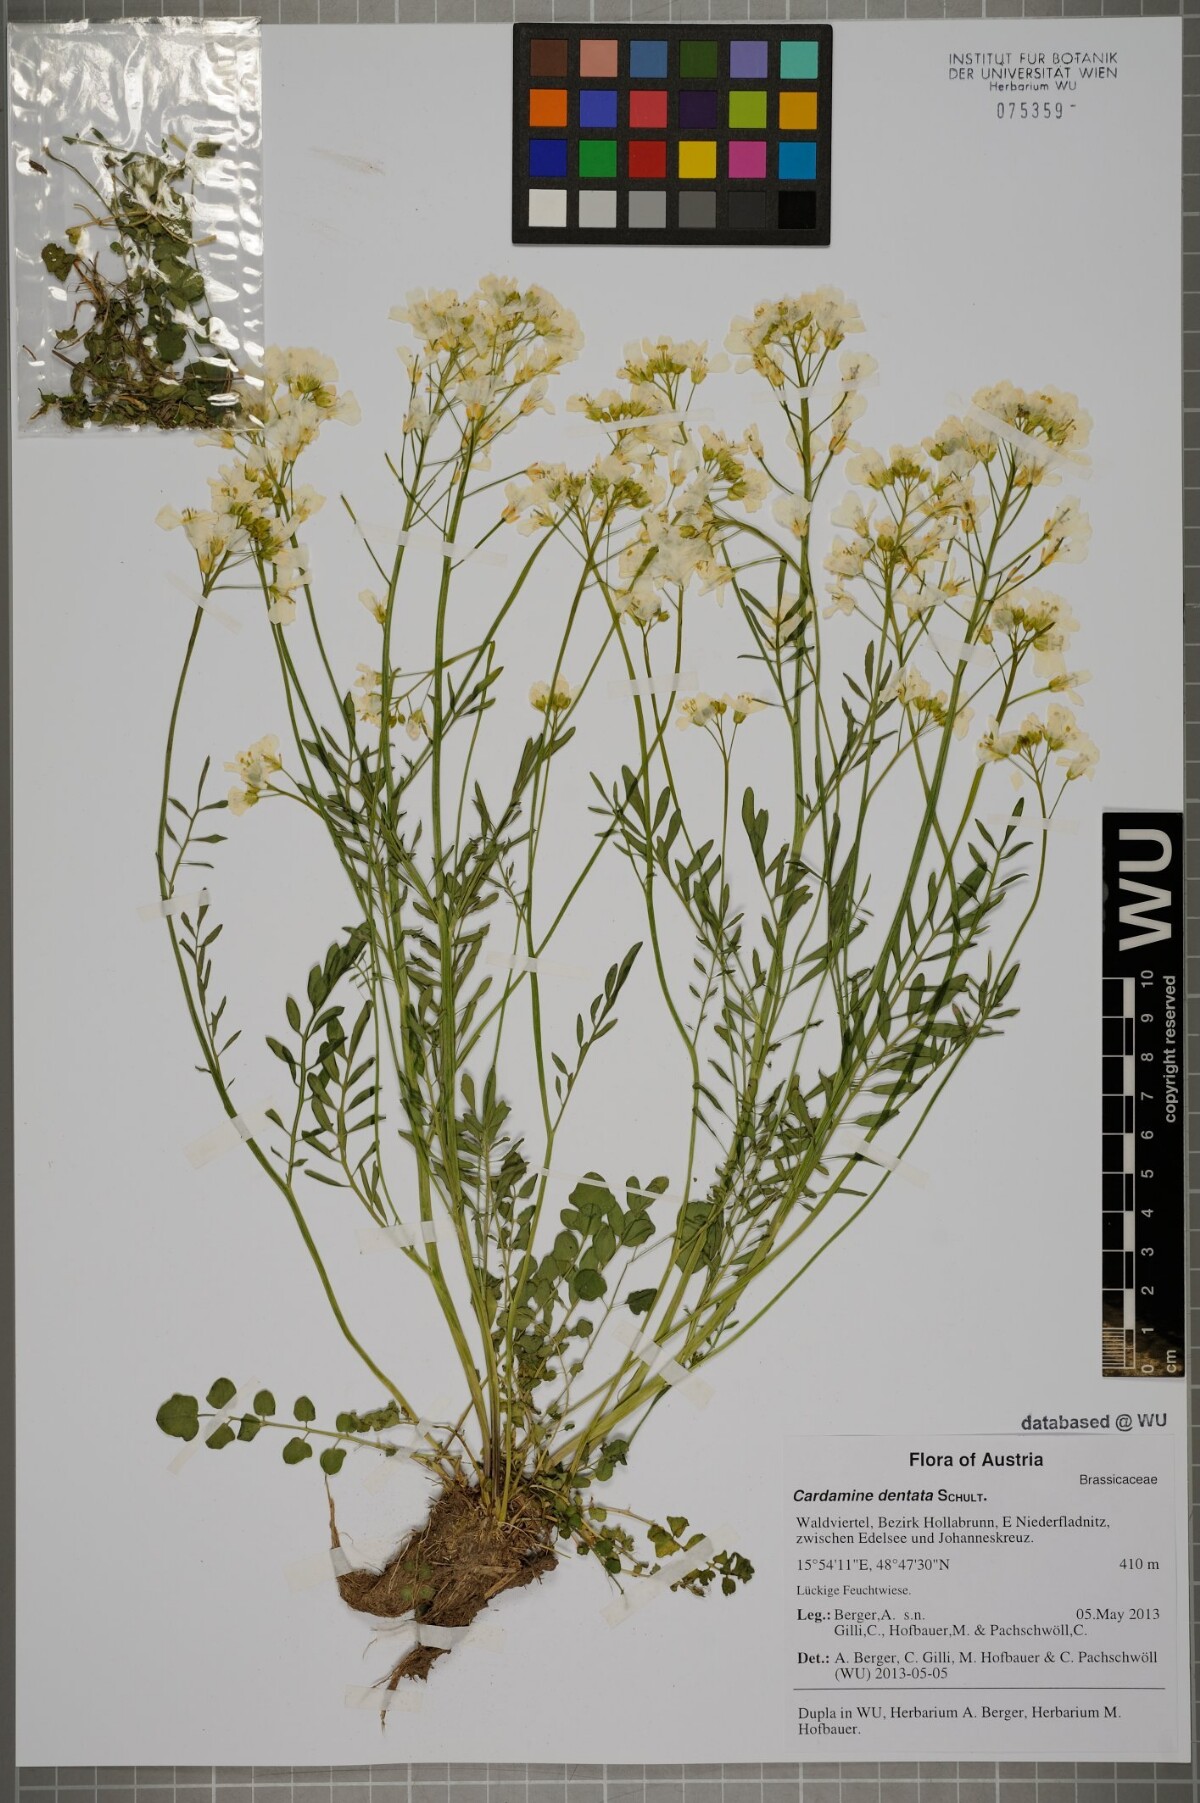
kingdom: Plantae
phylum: Tracheophyta
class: Magnoliopsida
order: Brassicales
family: Brassicaceae
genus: Cardamine
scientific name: Cardamine dentata
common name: Toothed bittercress
